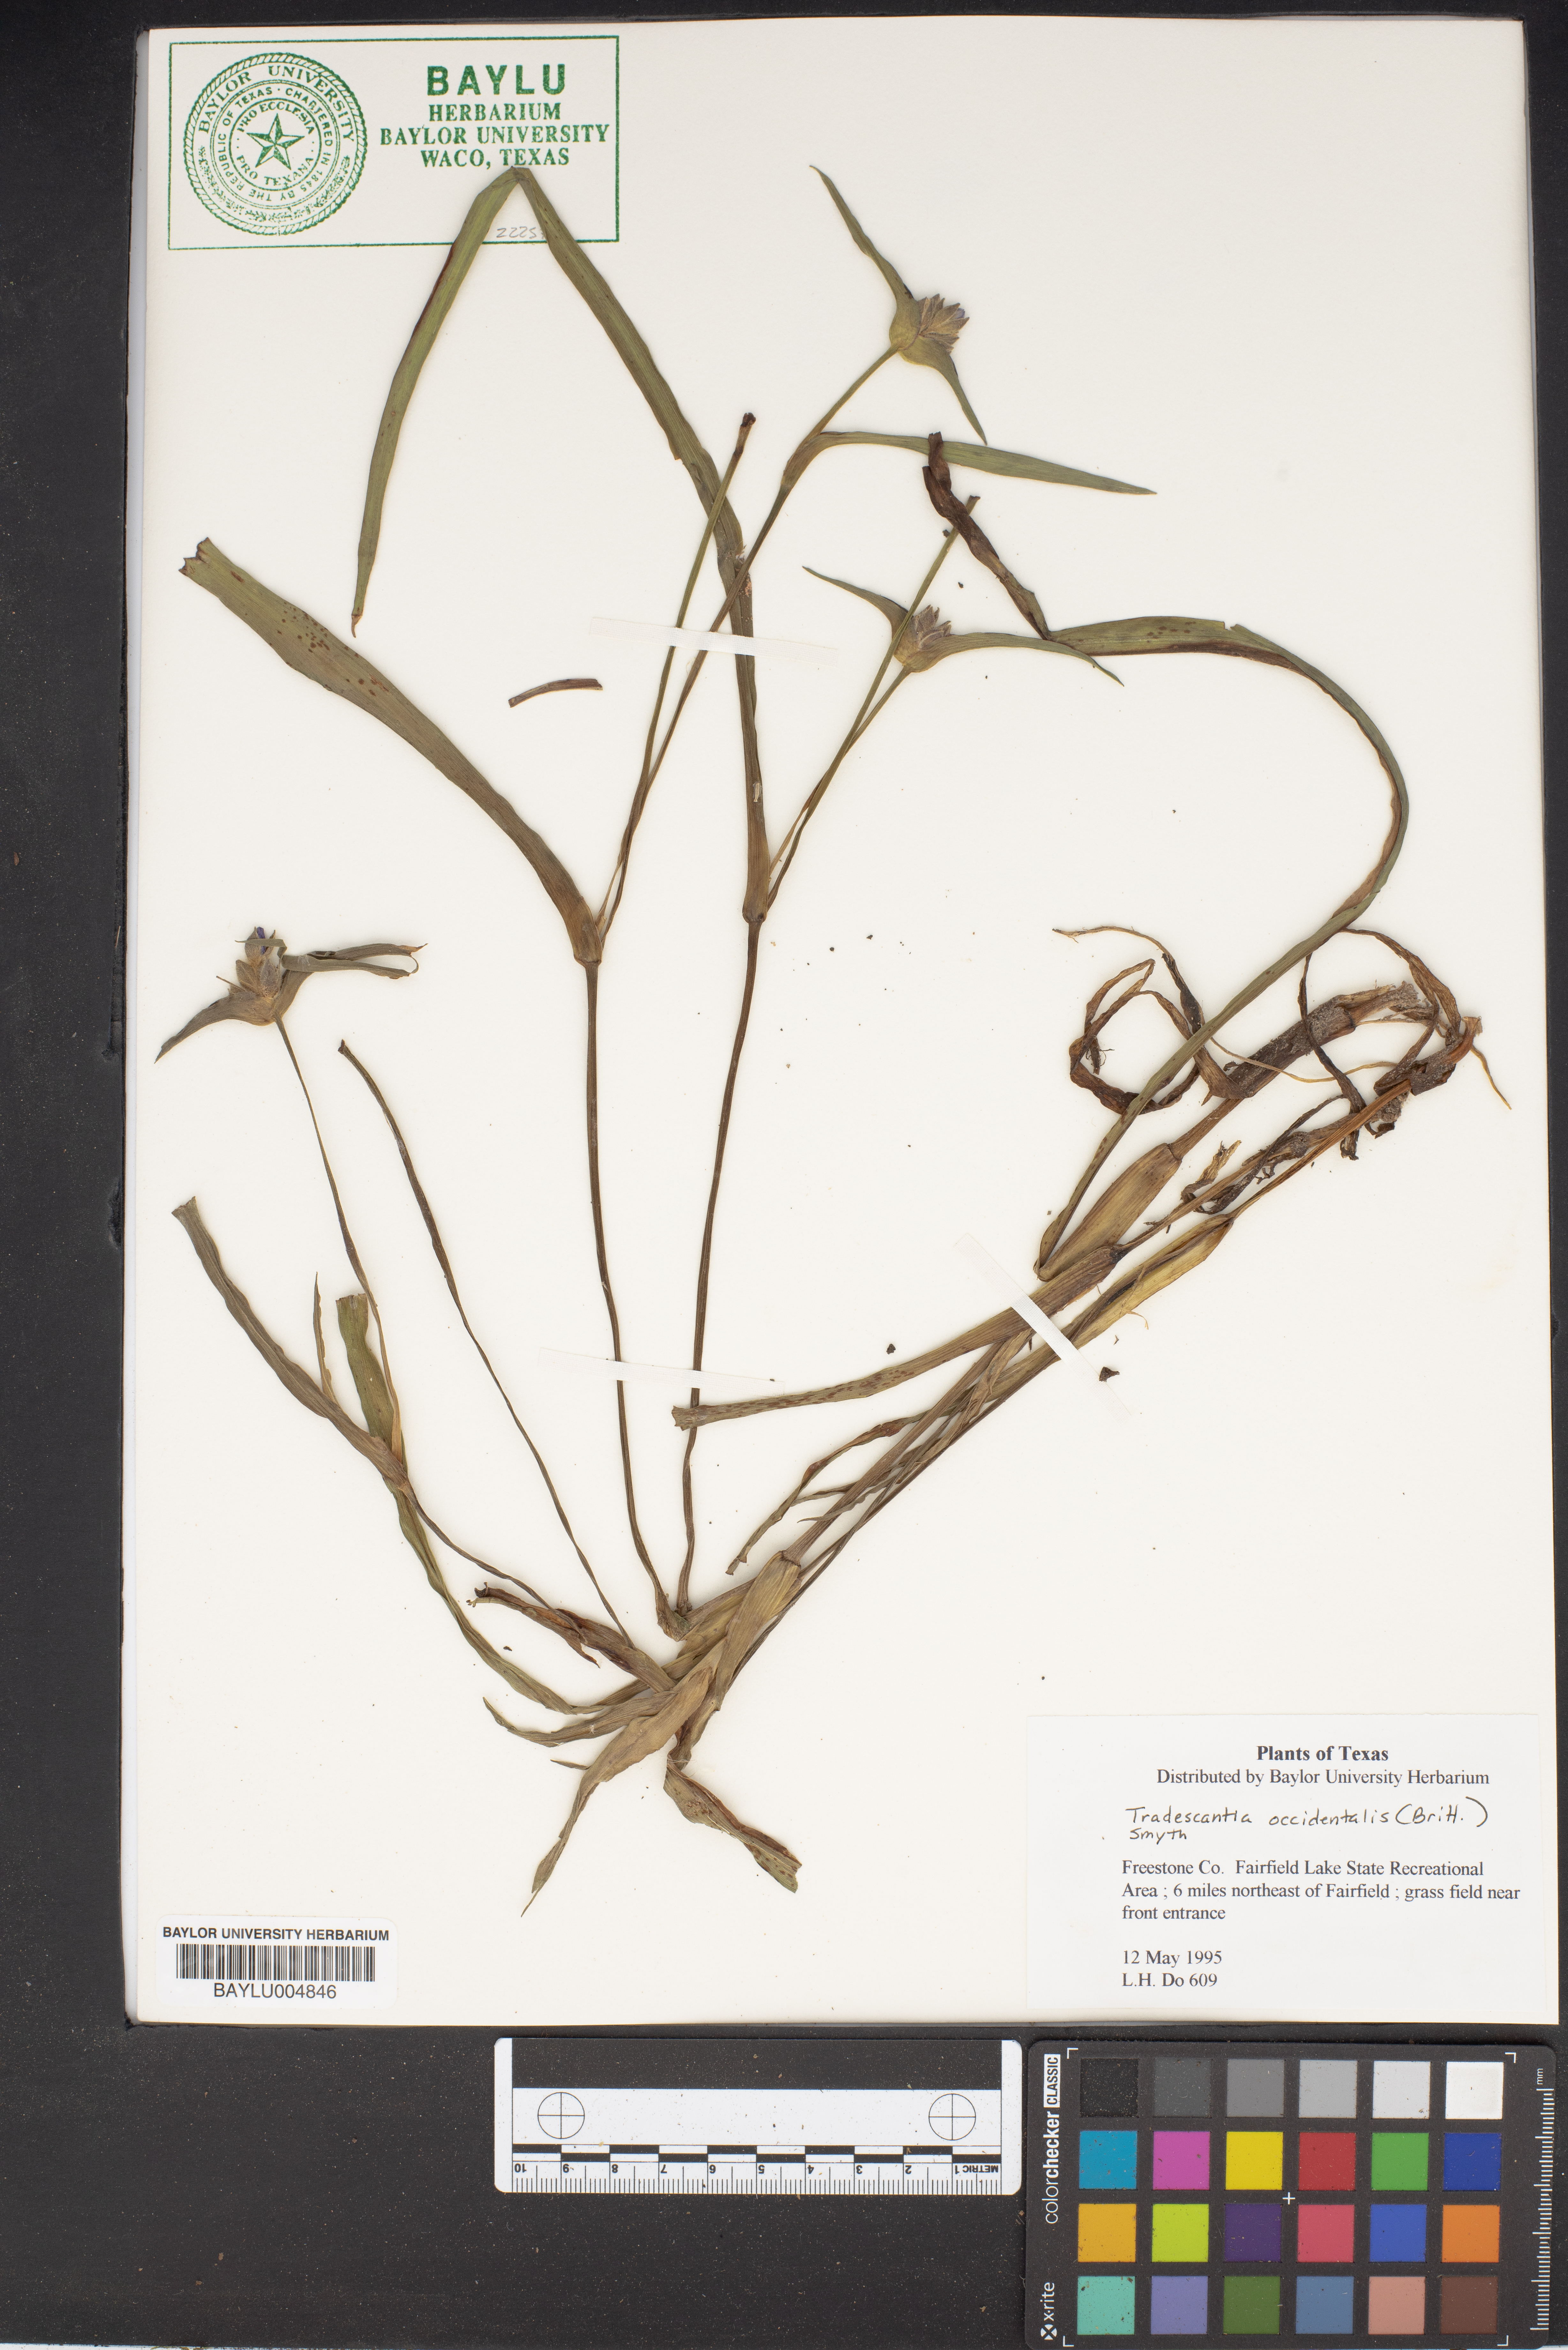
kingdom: Plantae
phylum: Tracheophyta
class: Liliopsida
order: Commelinales
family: Commelinaceae
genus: Tradescantia
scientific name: Tradescantia occidentalis
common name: Prairie spiderwort
